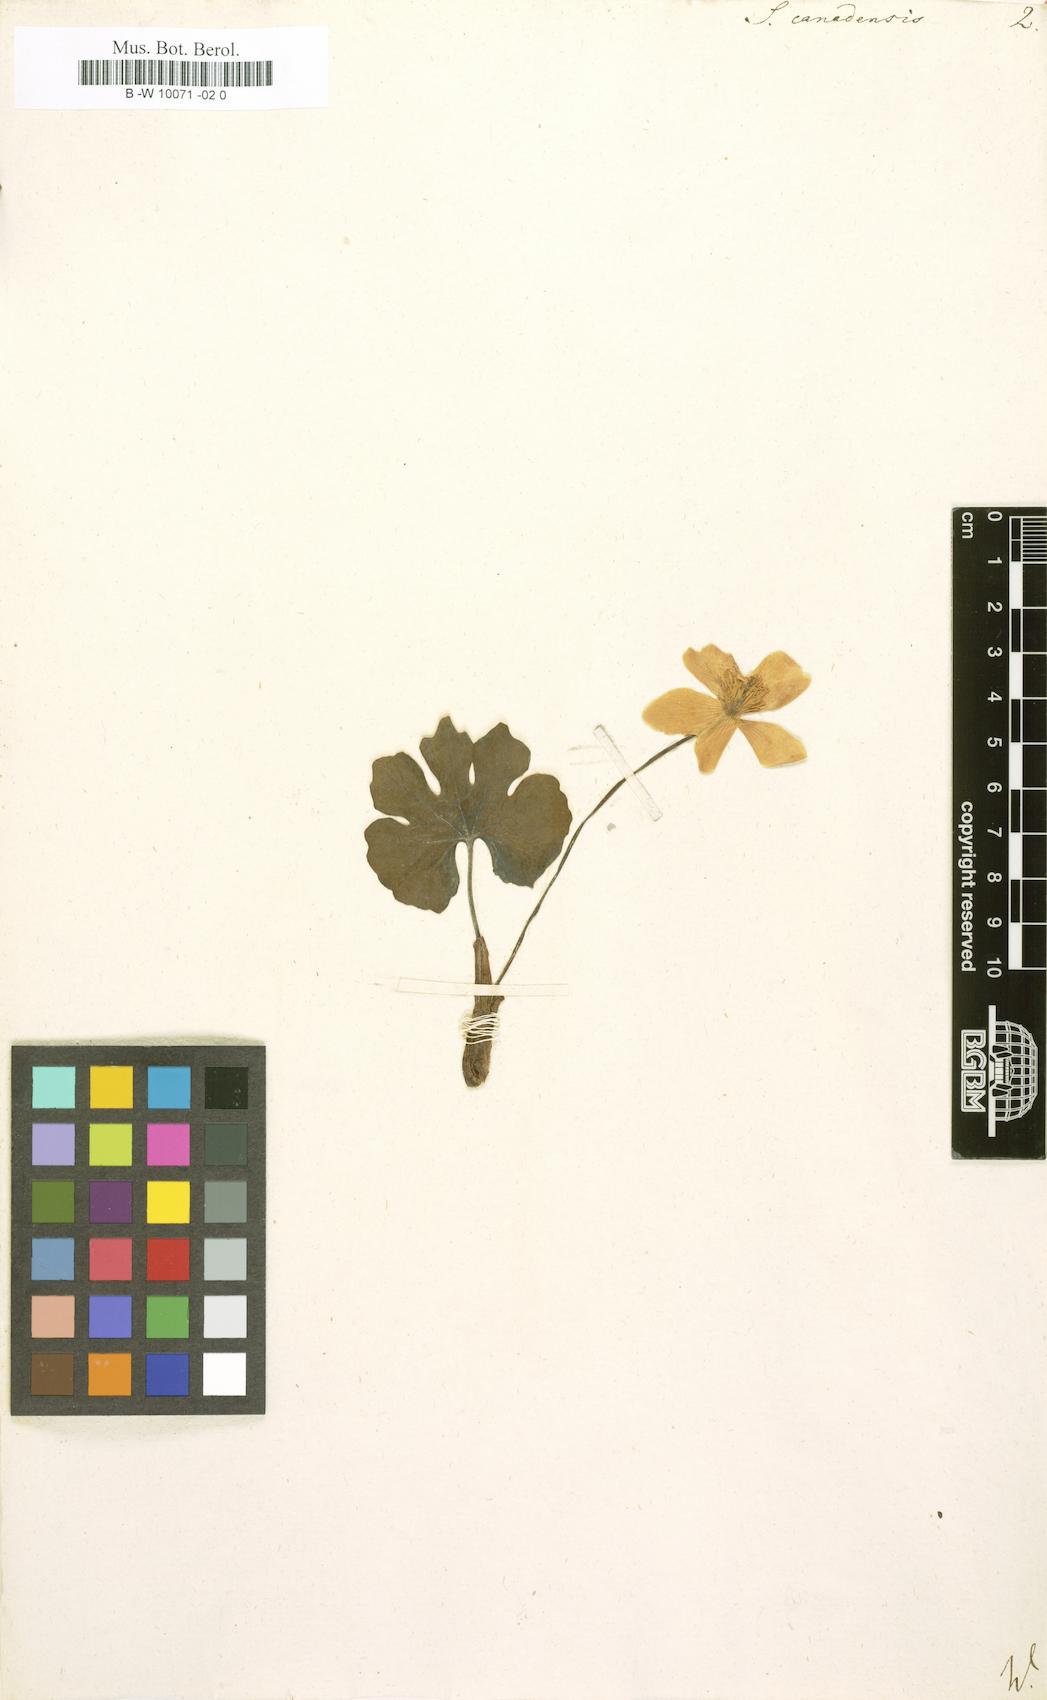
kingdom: Plantae
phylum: Tracheophyta
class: Magnoliopsida
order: Ranunculales
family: Papaveraceae
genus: Sanguinaria
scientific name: Sanguinaria canadensis
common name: Bloodroot
